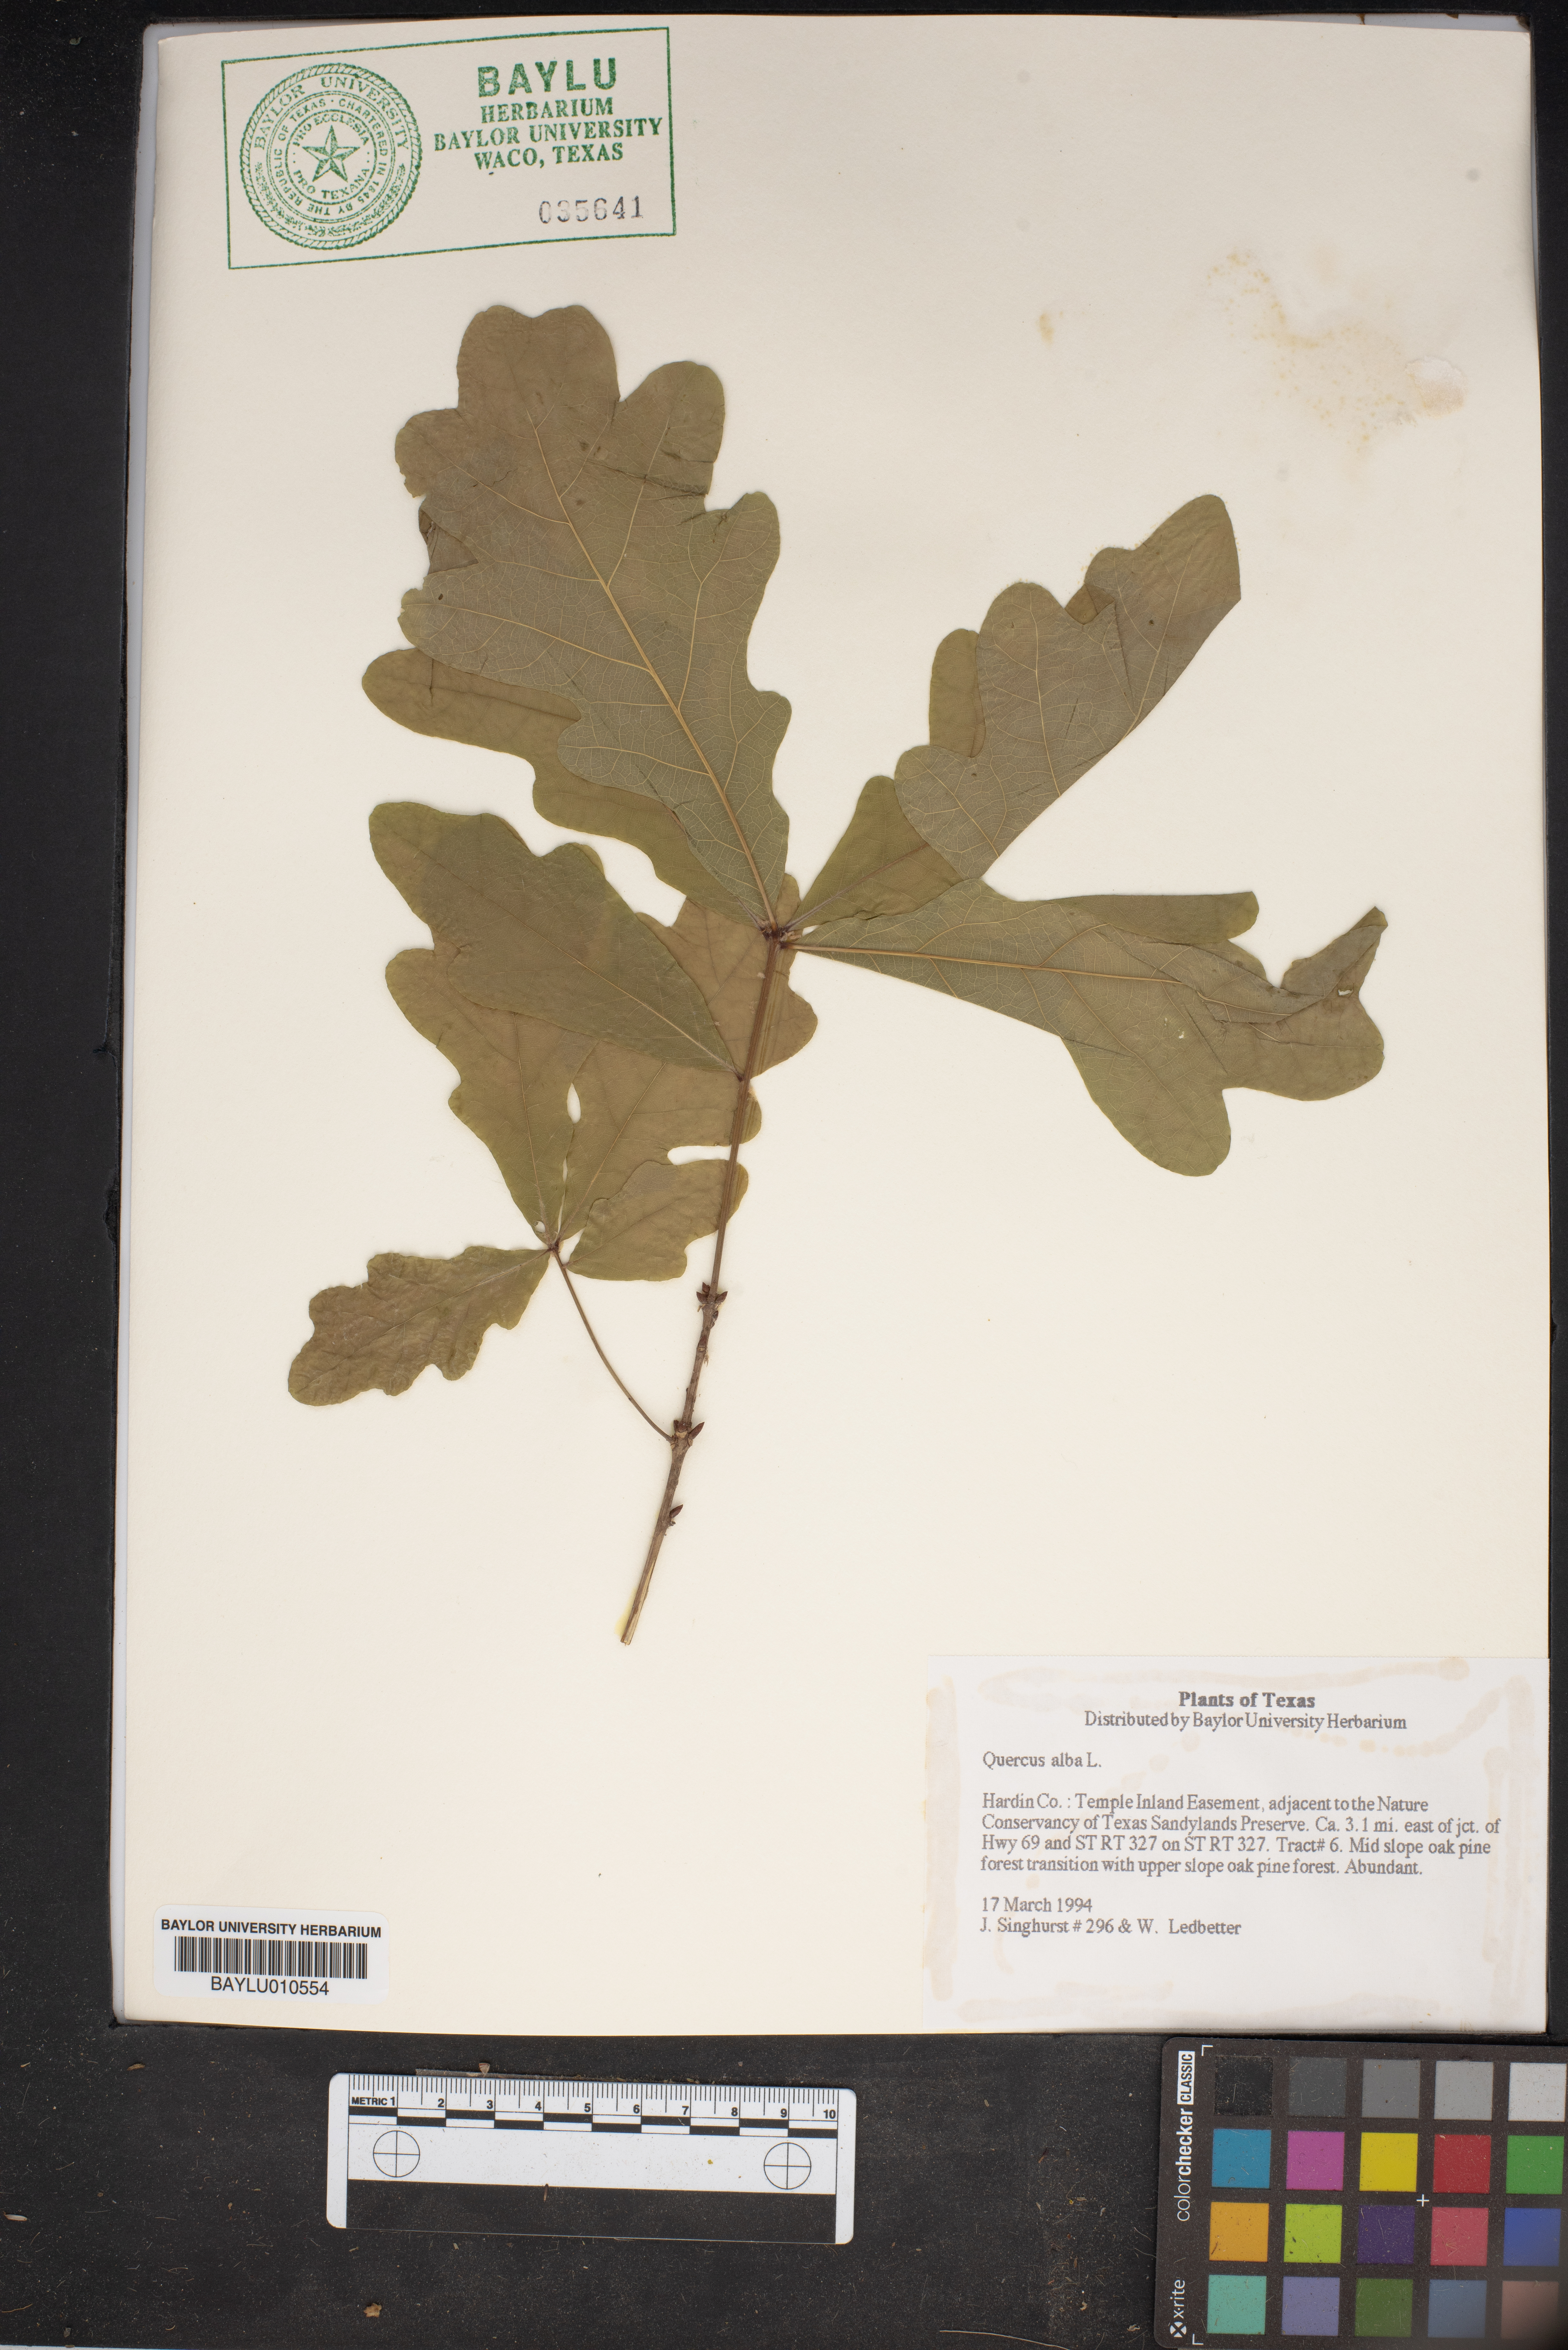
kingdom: Plantae
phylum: Tracheophyta
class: Magnoliopsida
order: Fagales
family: Fagaceae
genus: Quercus
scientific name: Quercus alba
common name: White oak
